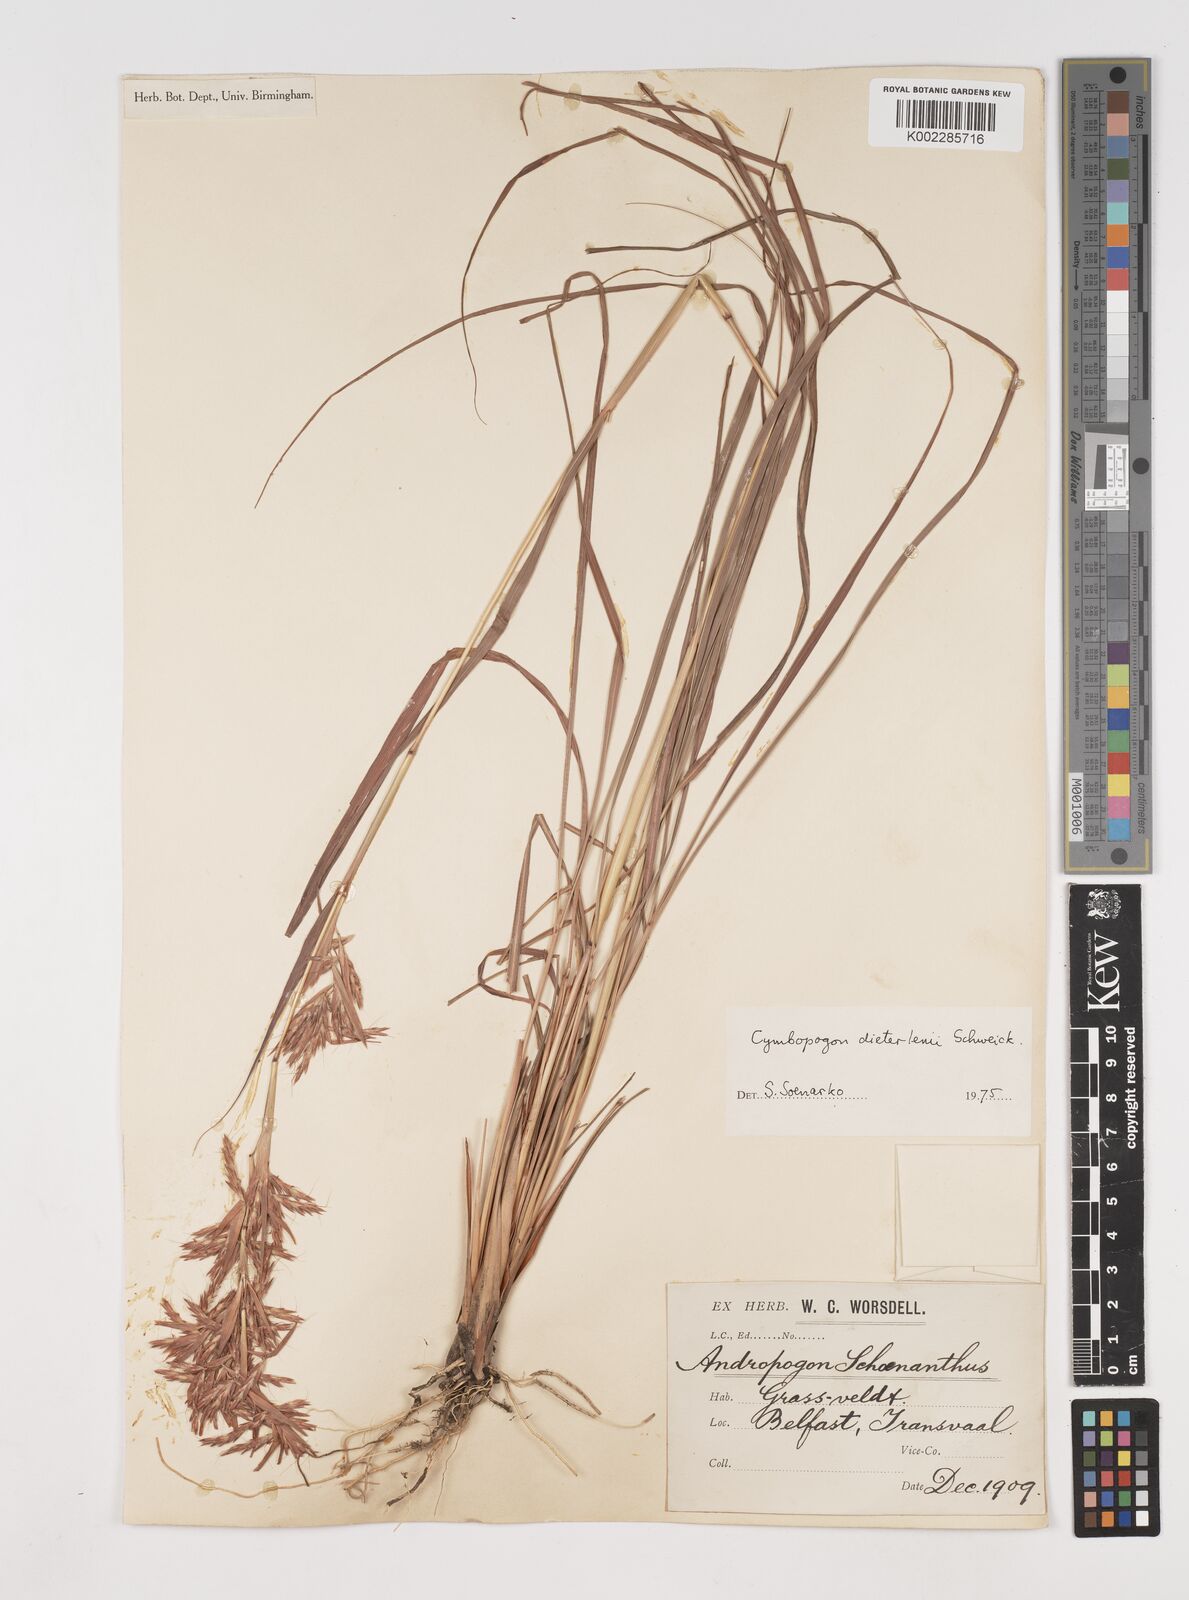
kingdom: Plantae
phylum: Tracheophyta
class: Liliopsida
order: Poales
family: Poaceae
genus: Cymbopogon
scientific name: Cymbopogon dieterlenii
